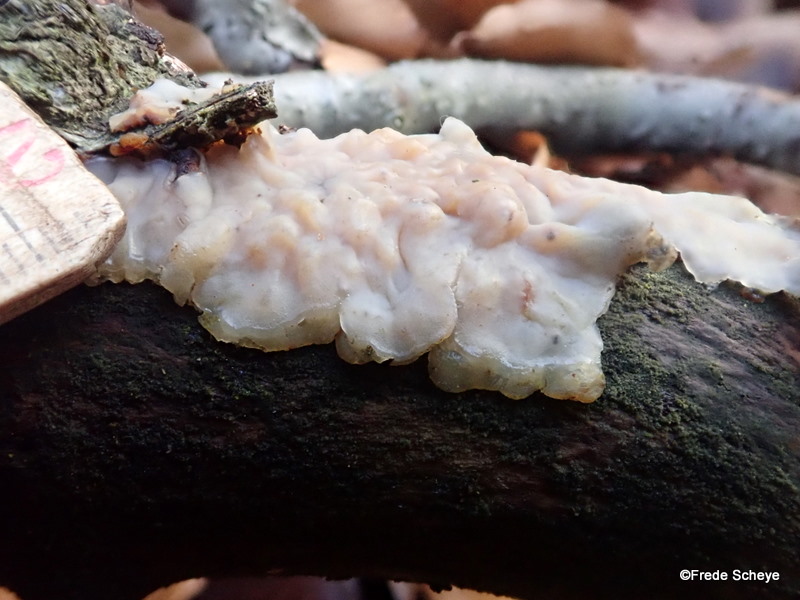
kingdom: Fungi
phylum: Basidiomycota
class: Agaricomycetes
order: Auriculariales
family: Auriculariaceae
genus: Exidia
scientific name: Exidia thuretiana
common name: hvidlig bævretop
